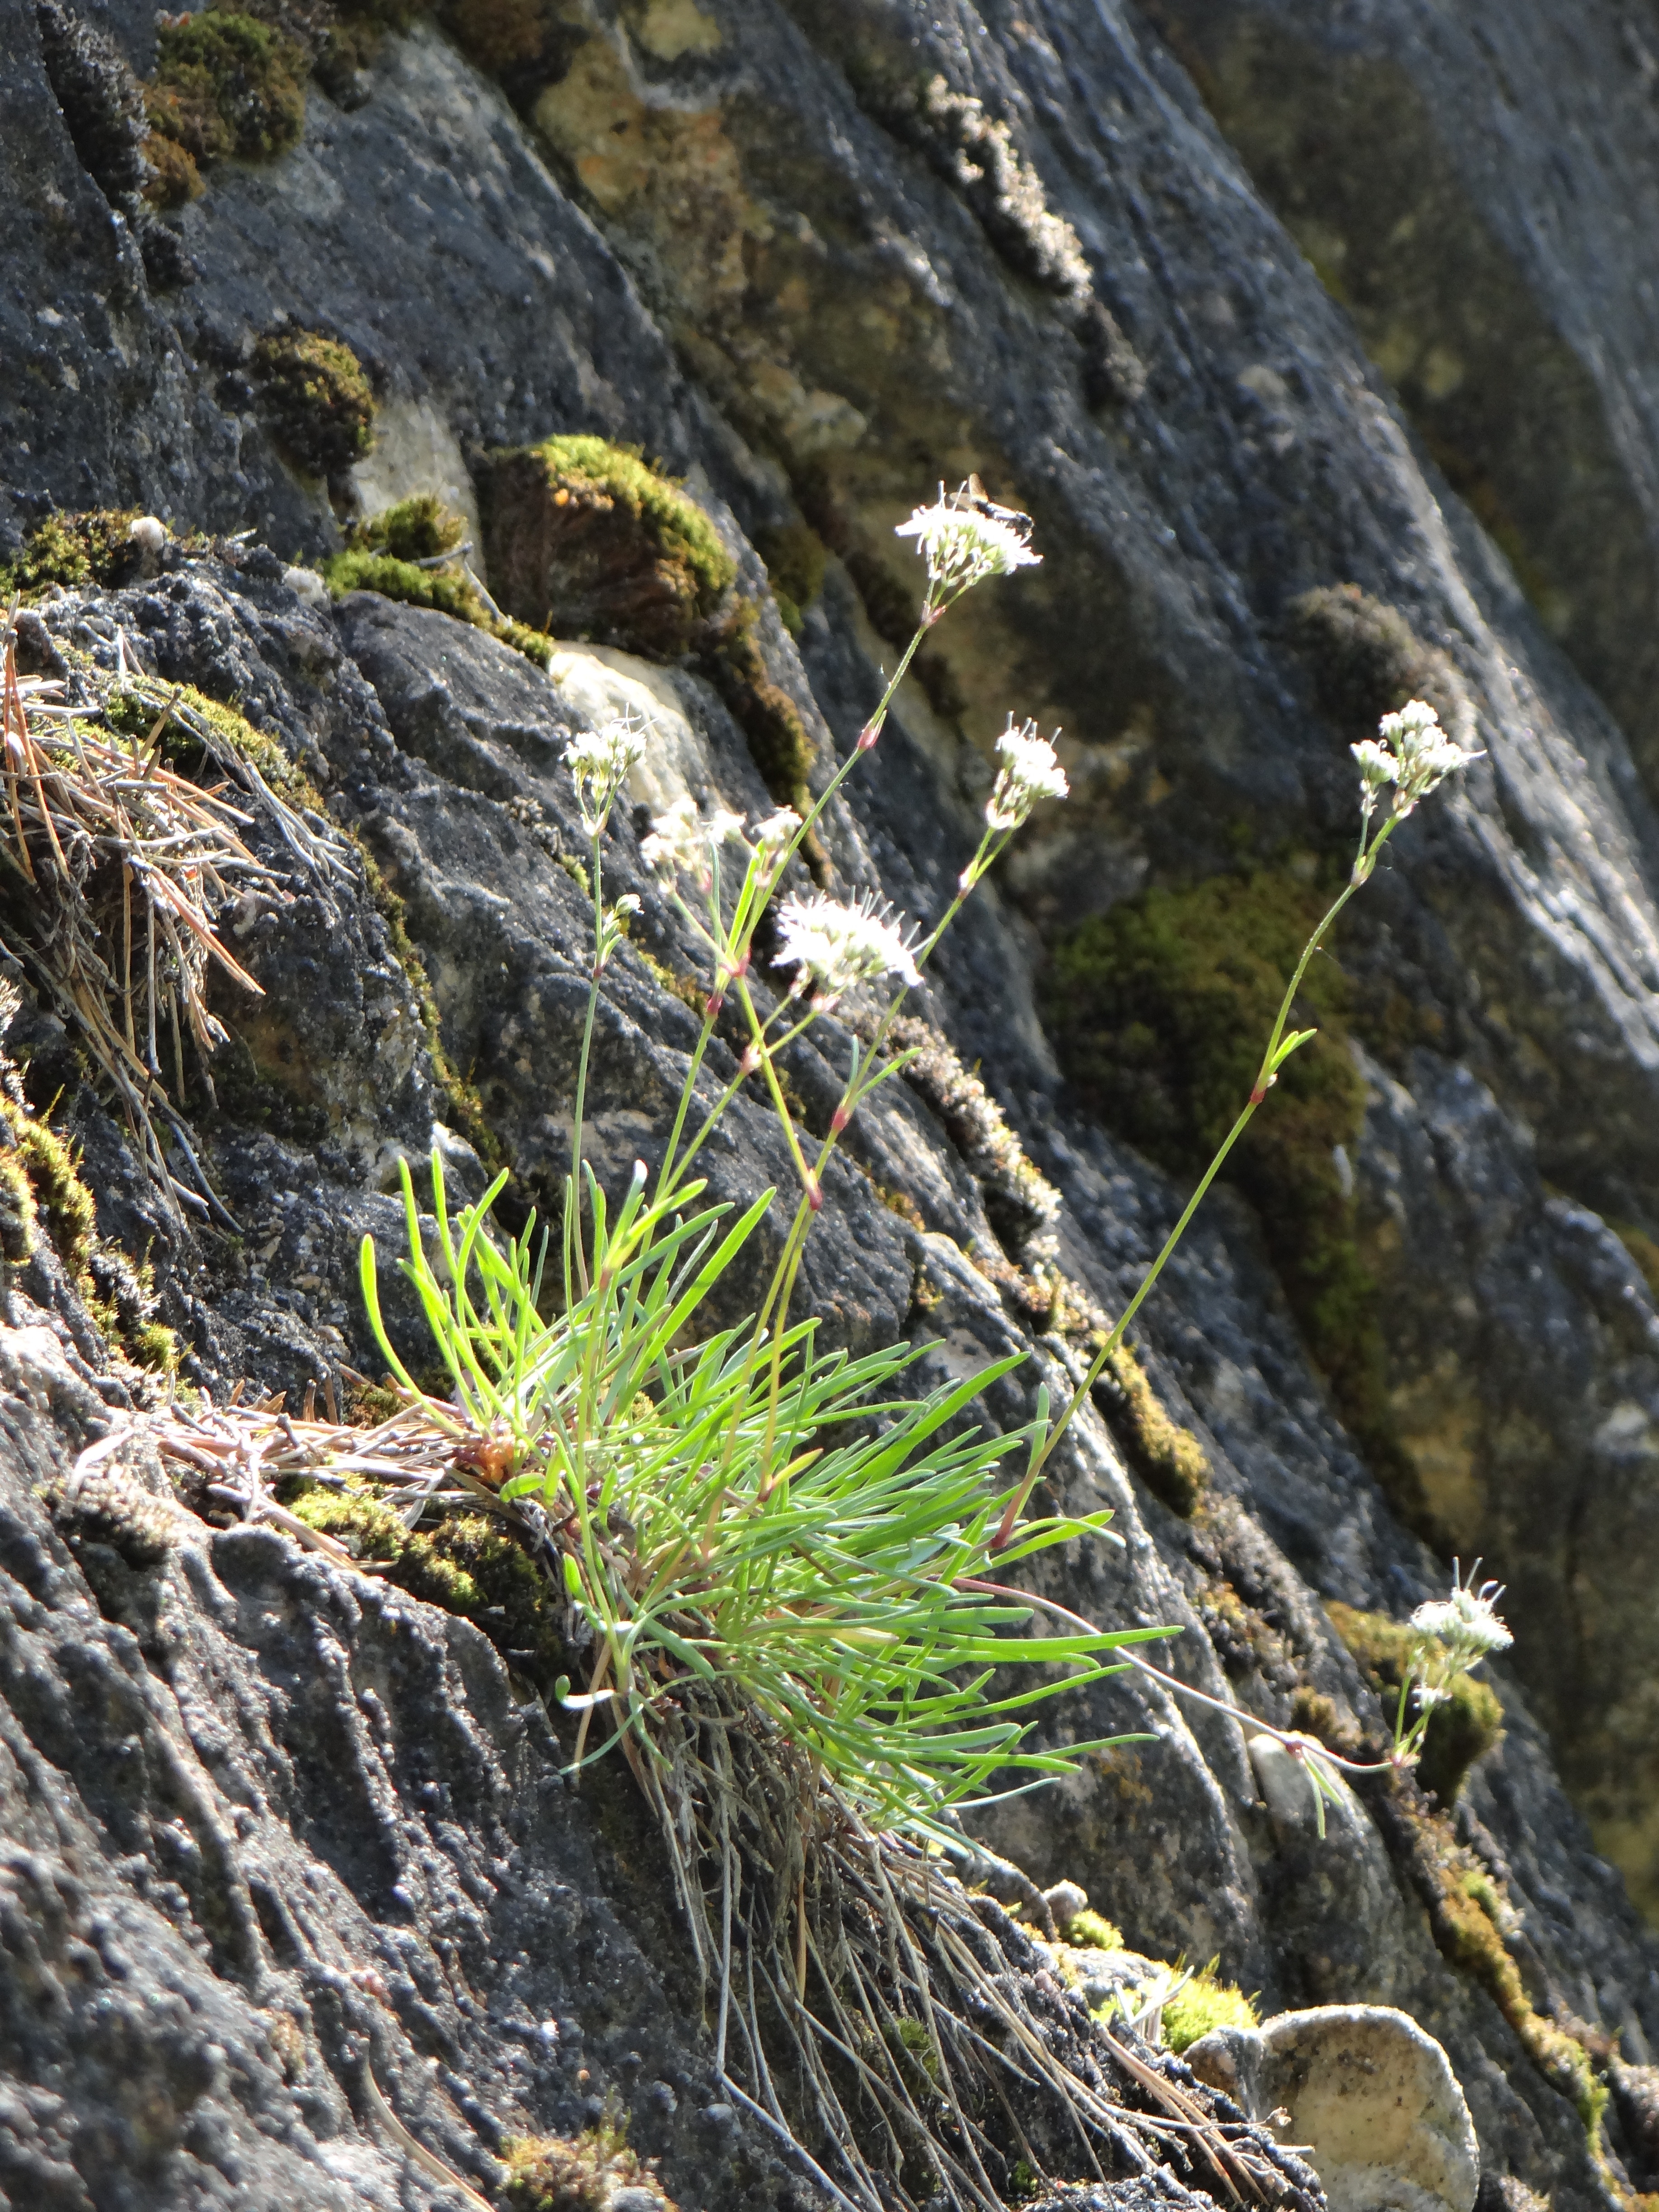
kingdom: Plantae
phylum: Tracheophyta
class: Magnoliopsida
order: Caryophyllales
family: Caryophyllaceae
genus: Gypsophila
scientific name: Gypsophila fastigiata
